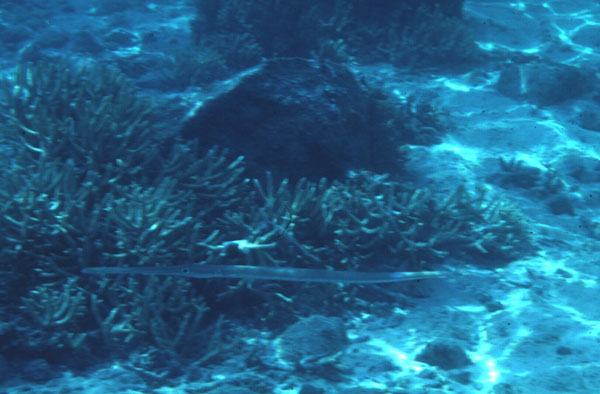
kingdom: Animalia
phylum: Chordata
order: Syngnathiformes
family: Fistulariidae
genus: Fistularia
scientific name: Fistularia commersonii
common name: Bluespotted cornetfish
